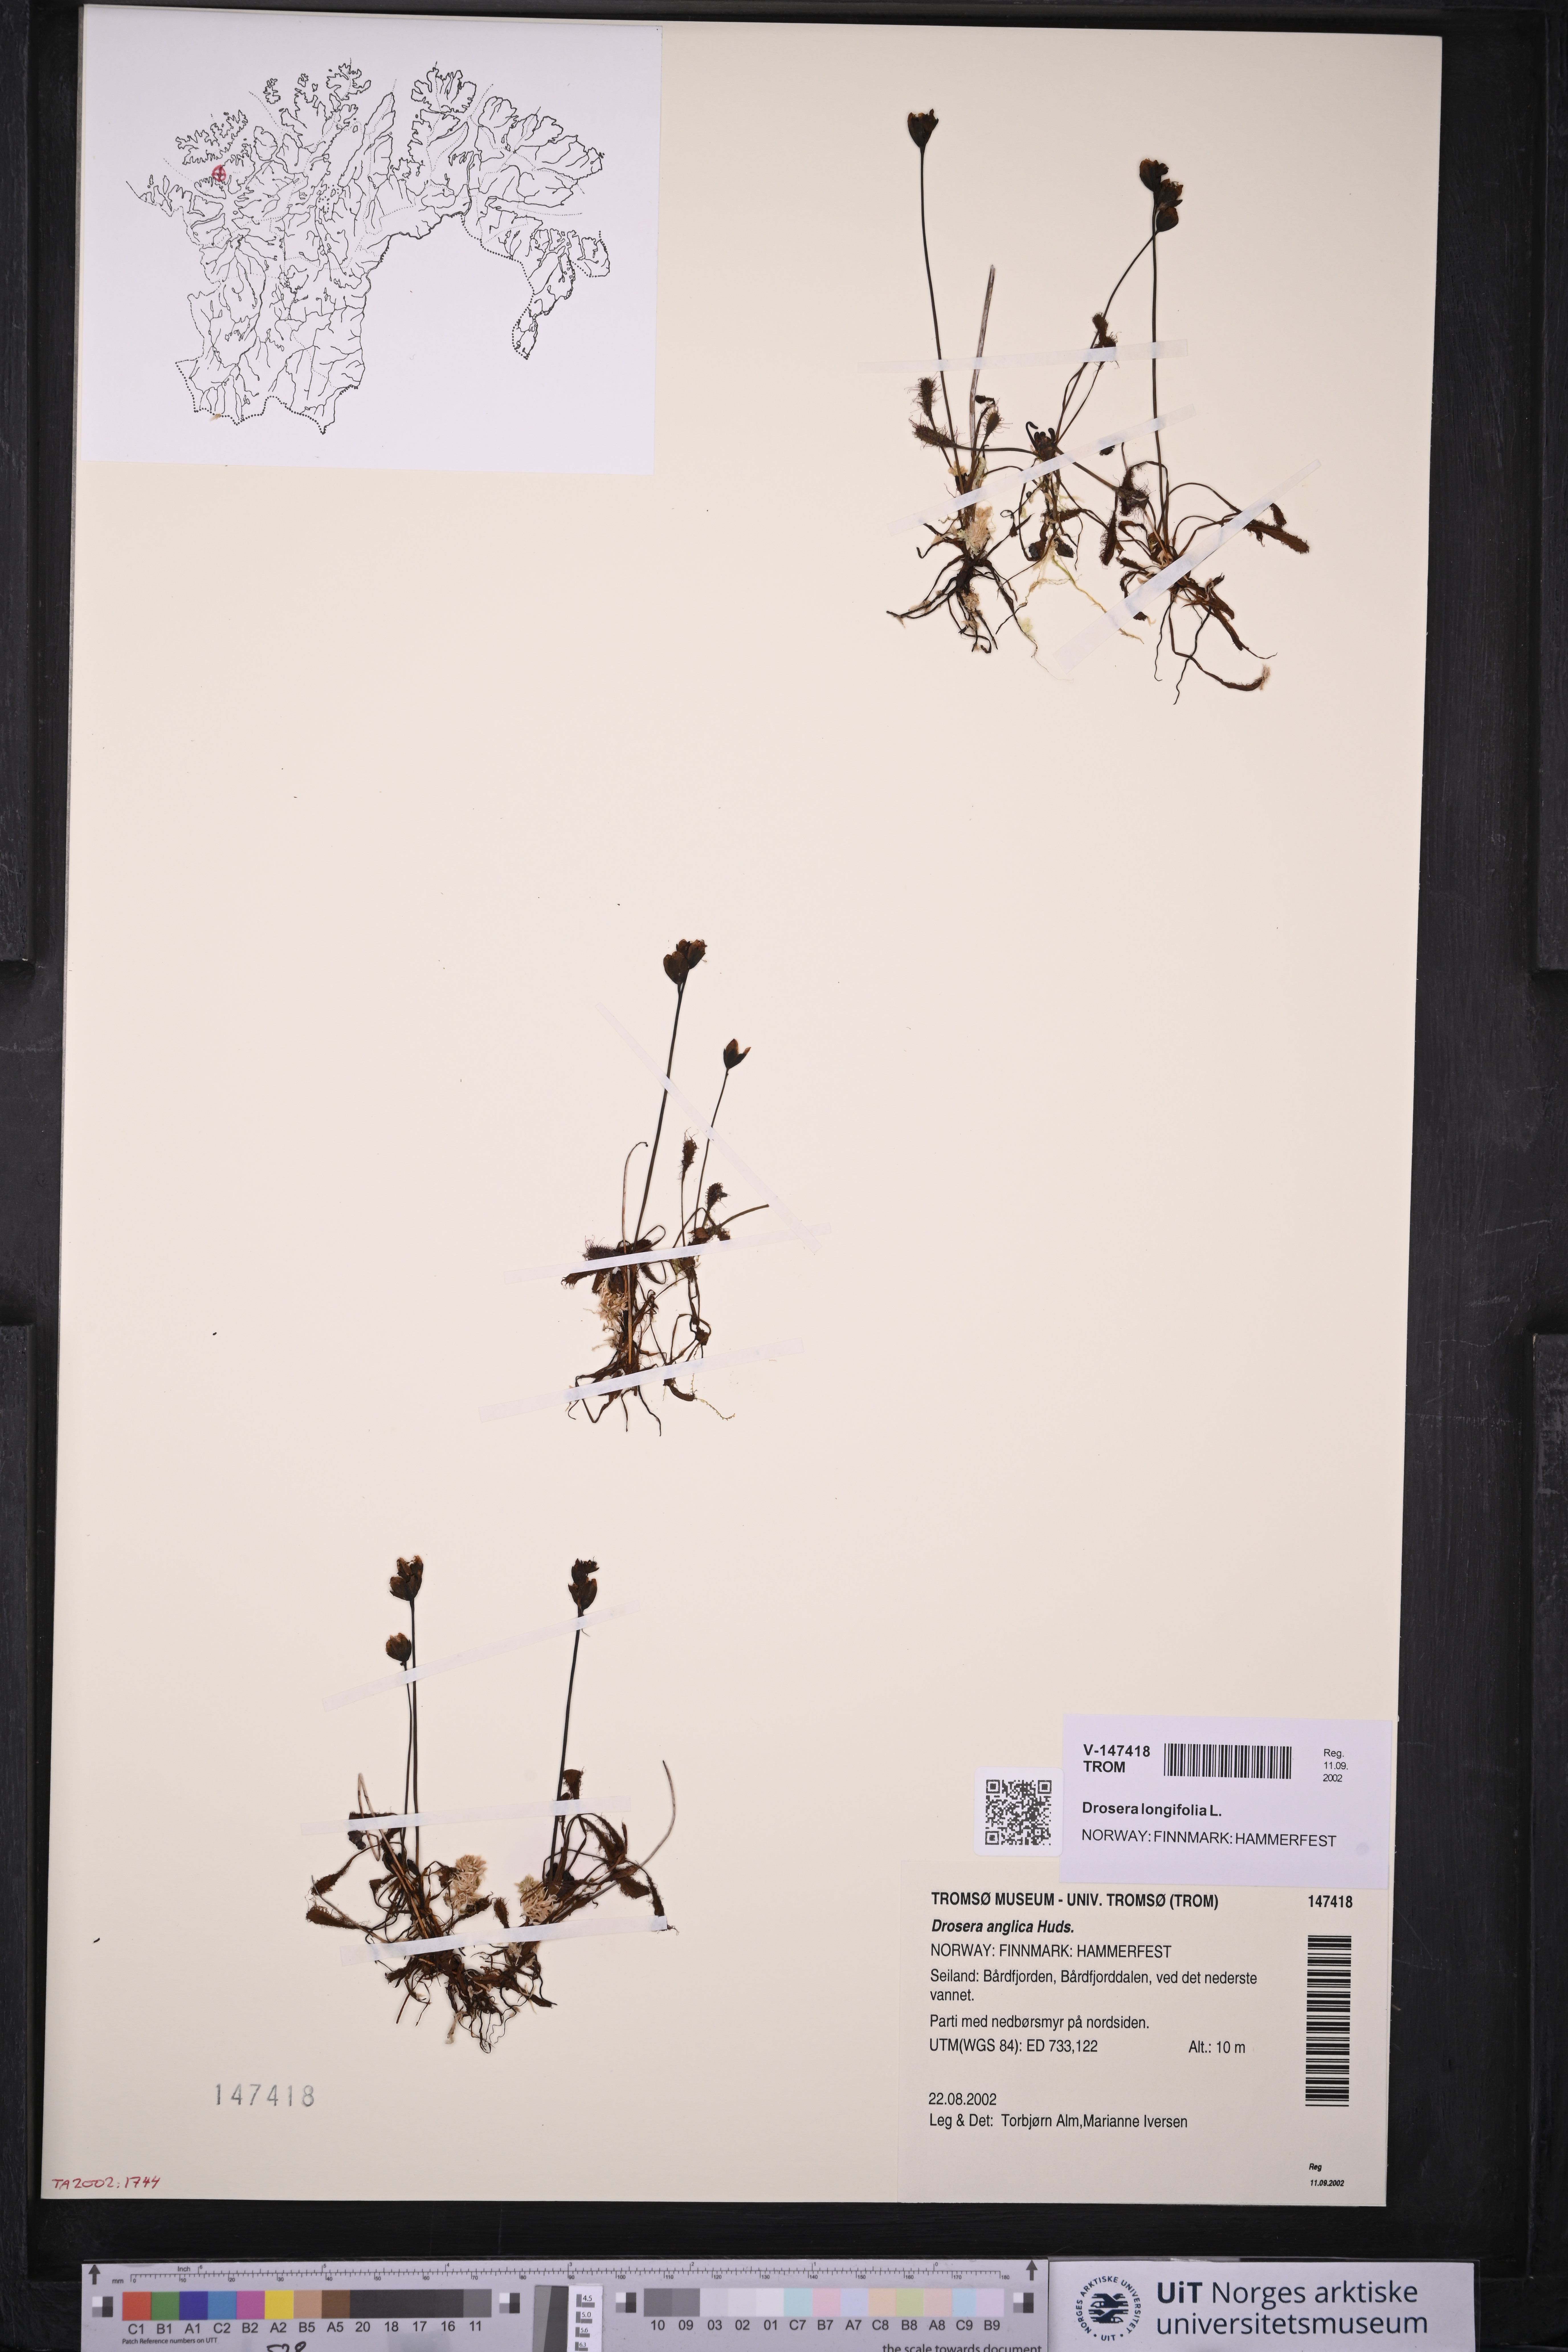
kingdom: Plantae
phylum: Tracheophyta
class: Magnoliopsida
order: Caryophyllales
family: Droseraceae
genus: Drosera
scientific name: Drosera anglica
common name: Great sundew
